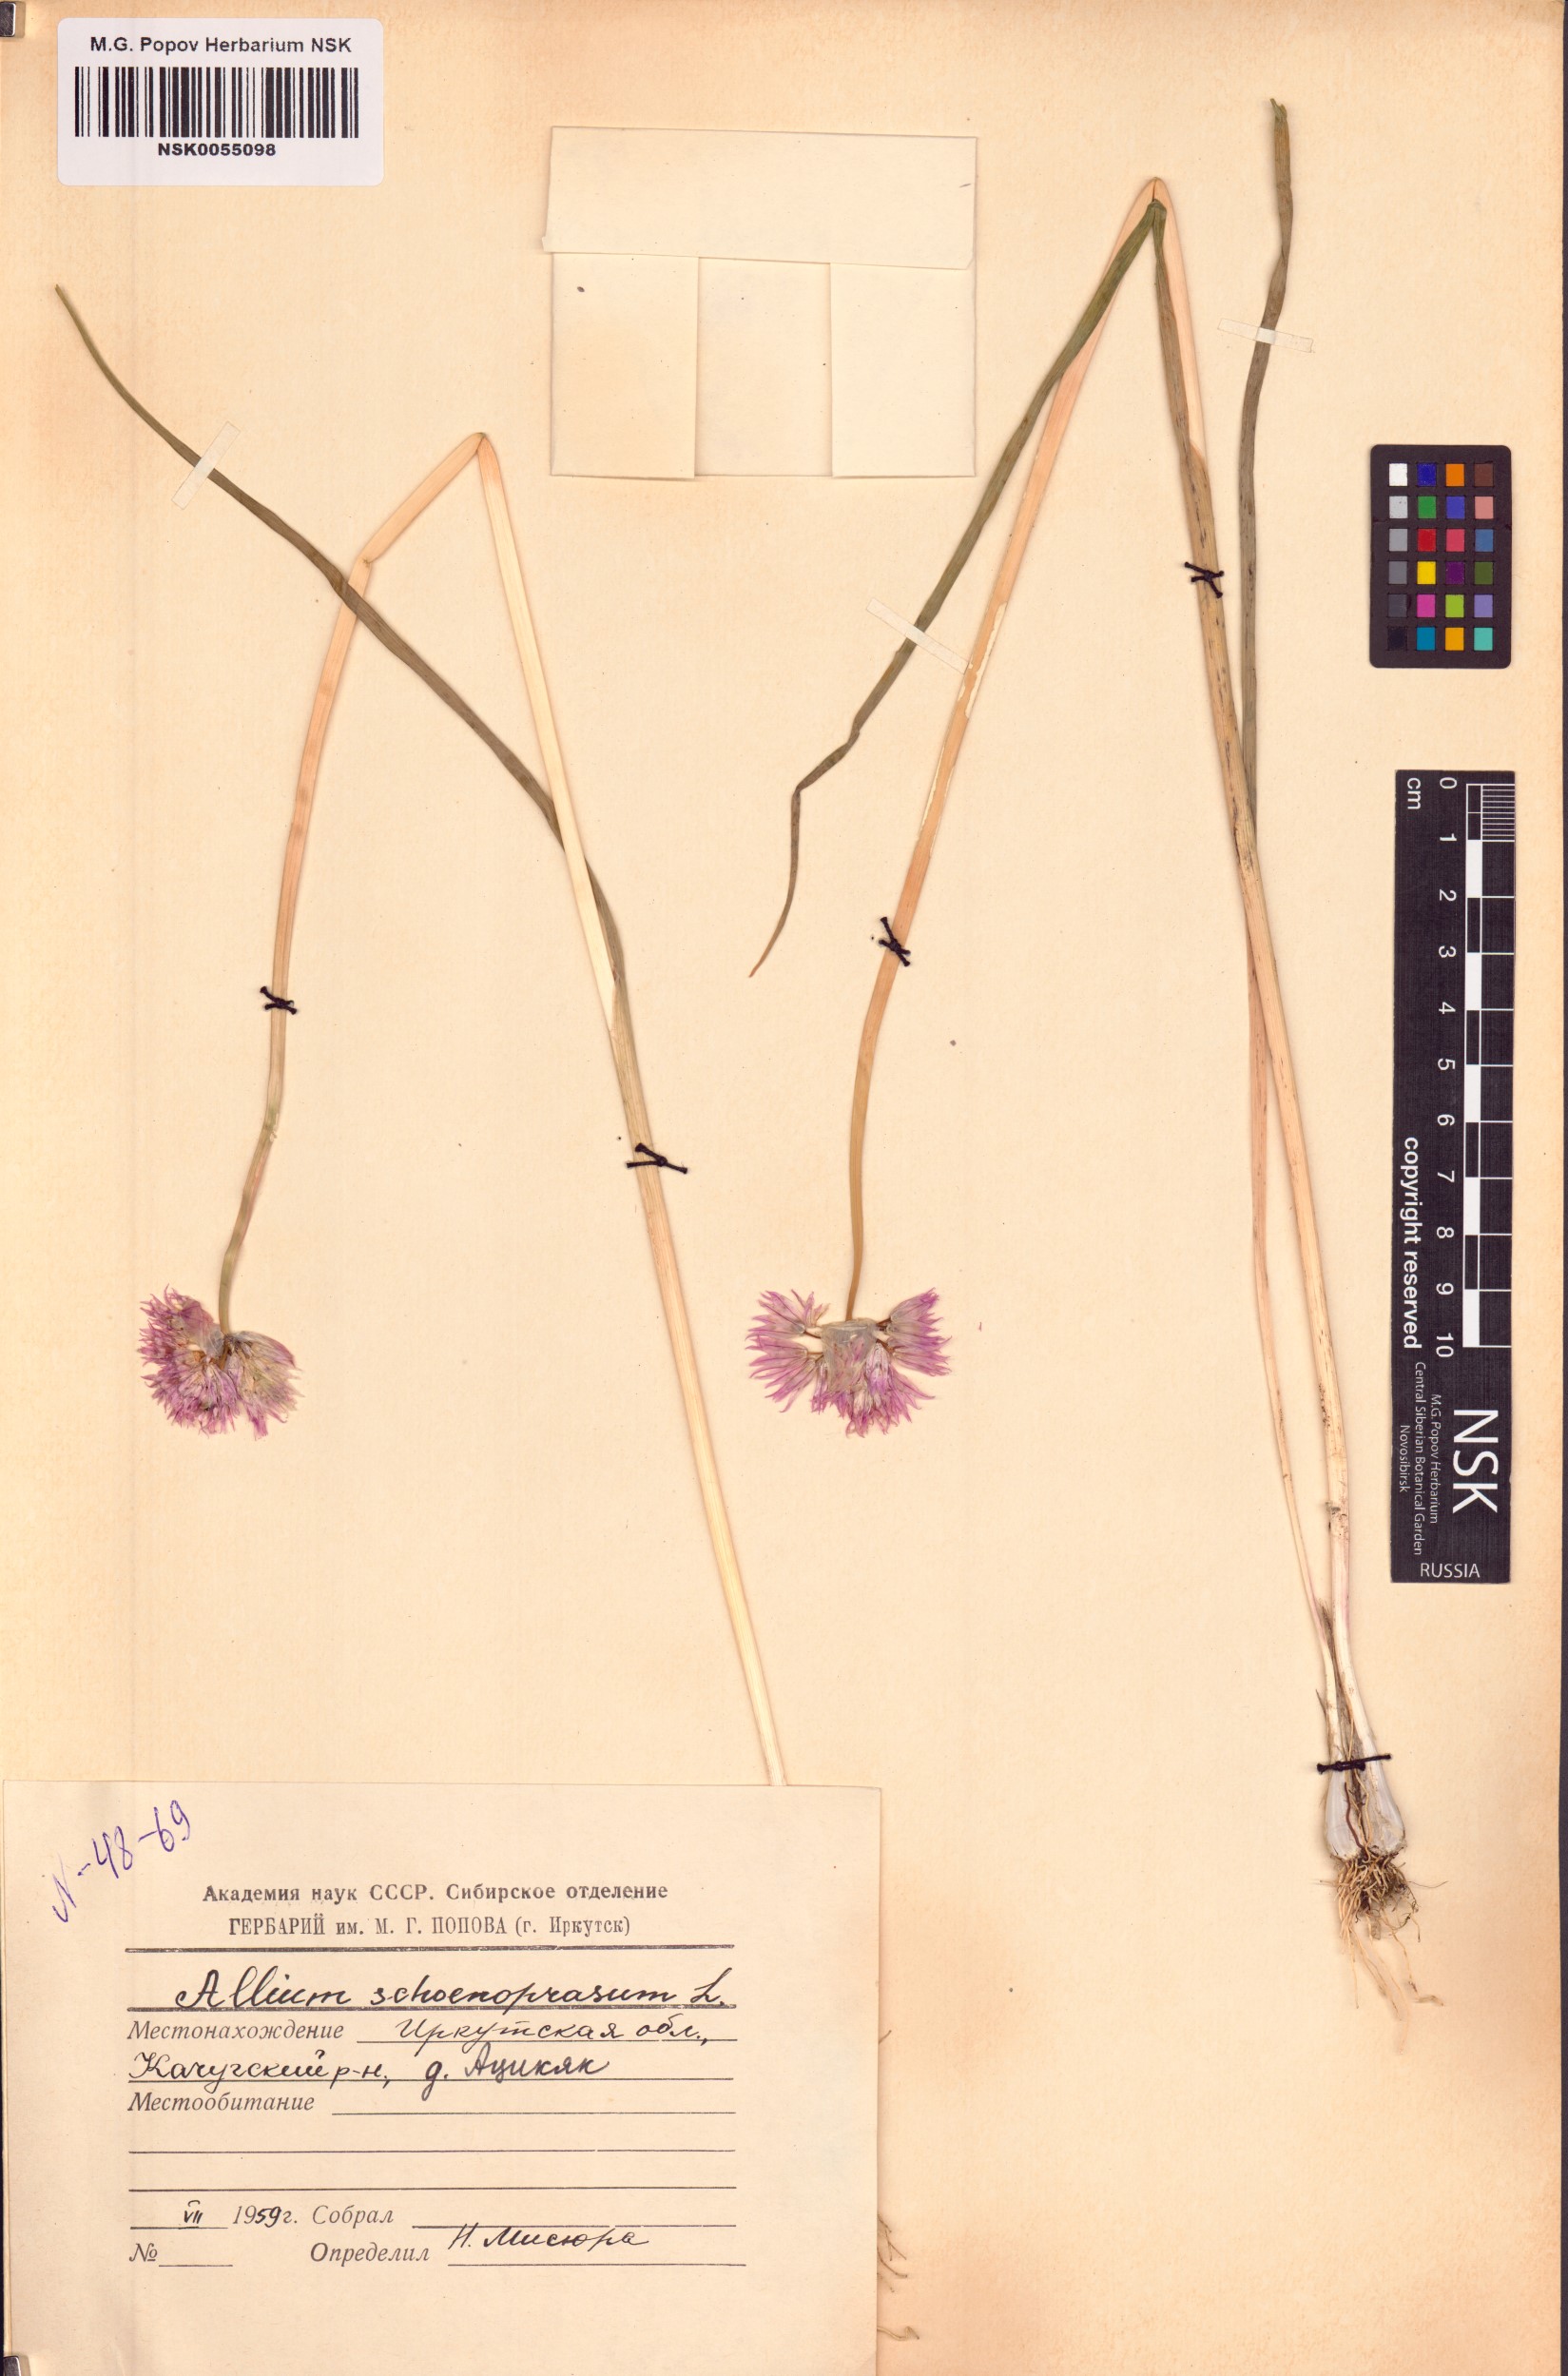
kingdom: Plantae
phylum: Tracheophyta
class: Liliopsida
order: Asparagales
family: Amaryllidaceae
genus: Allium
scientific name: Allium schoenoprasum
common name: Chives
